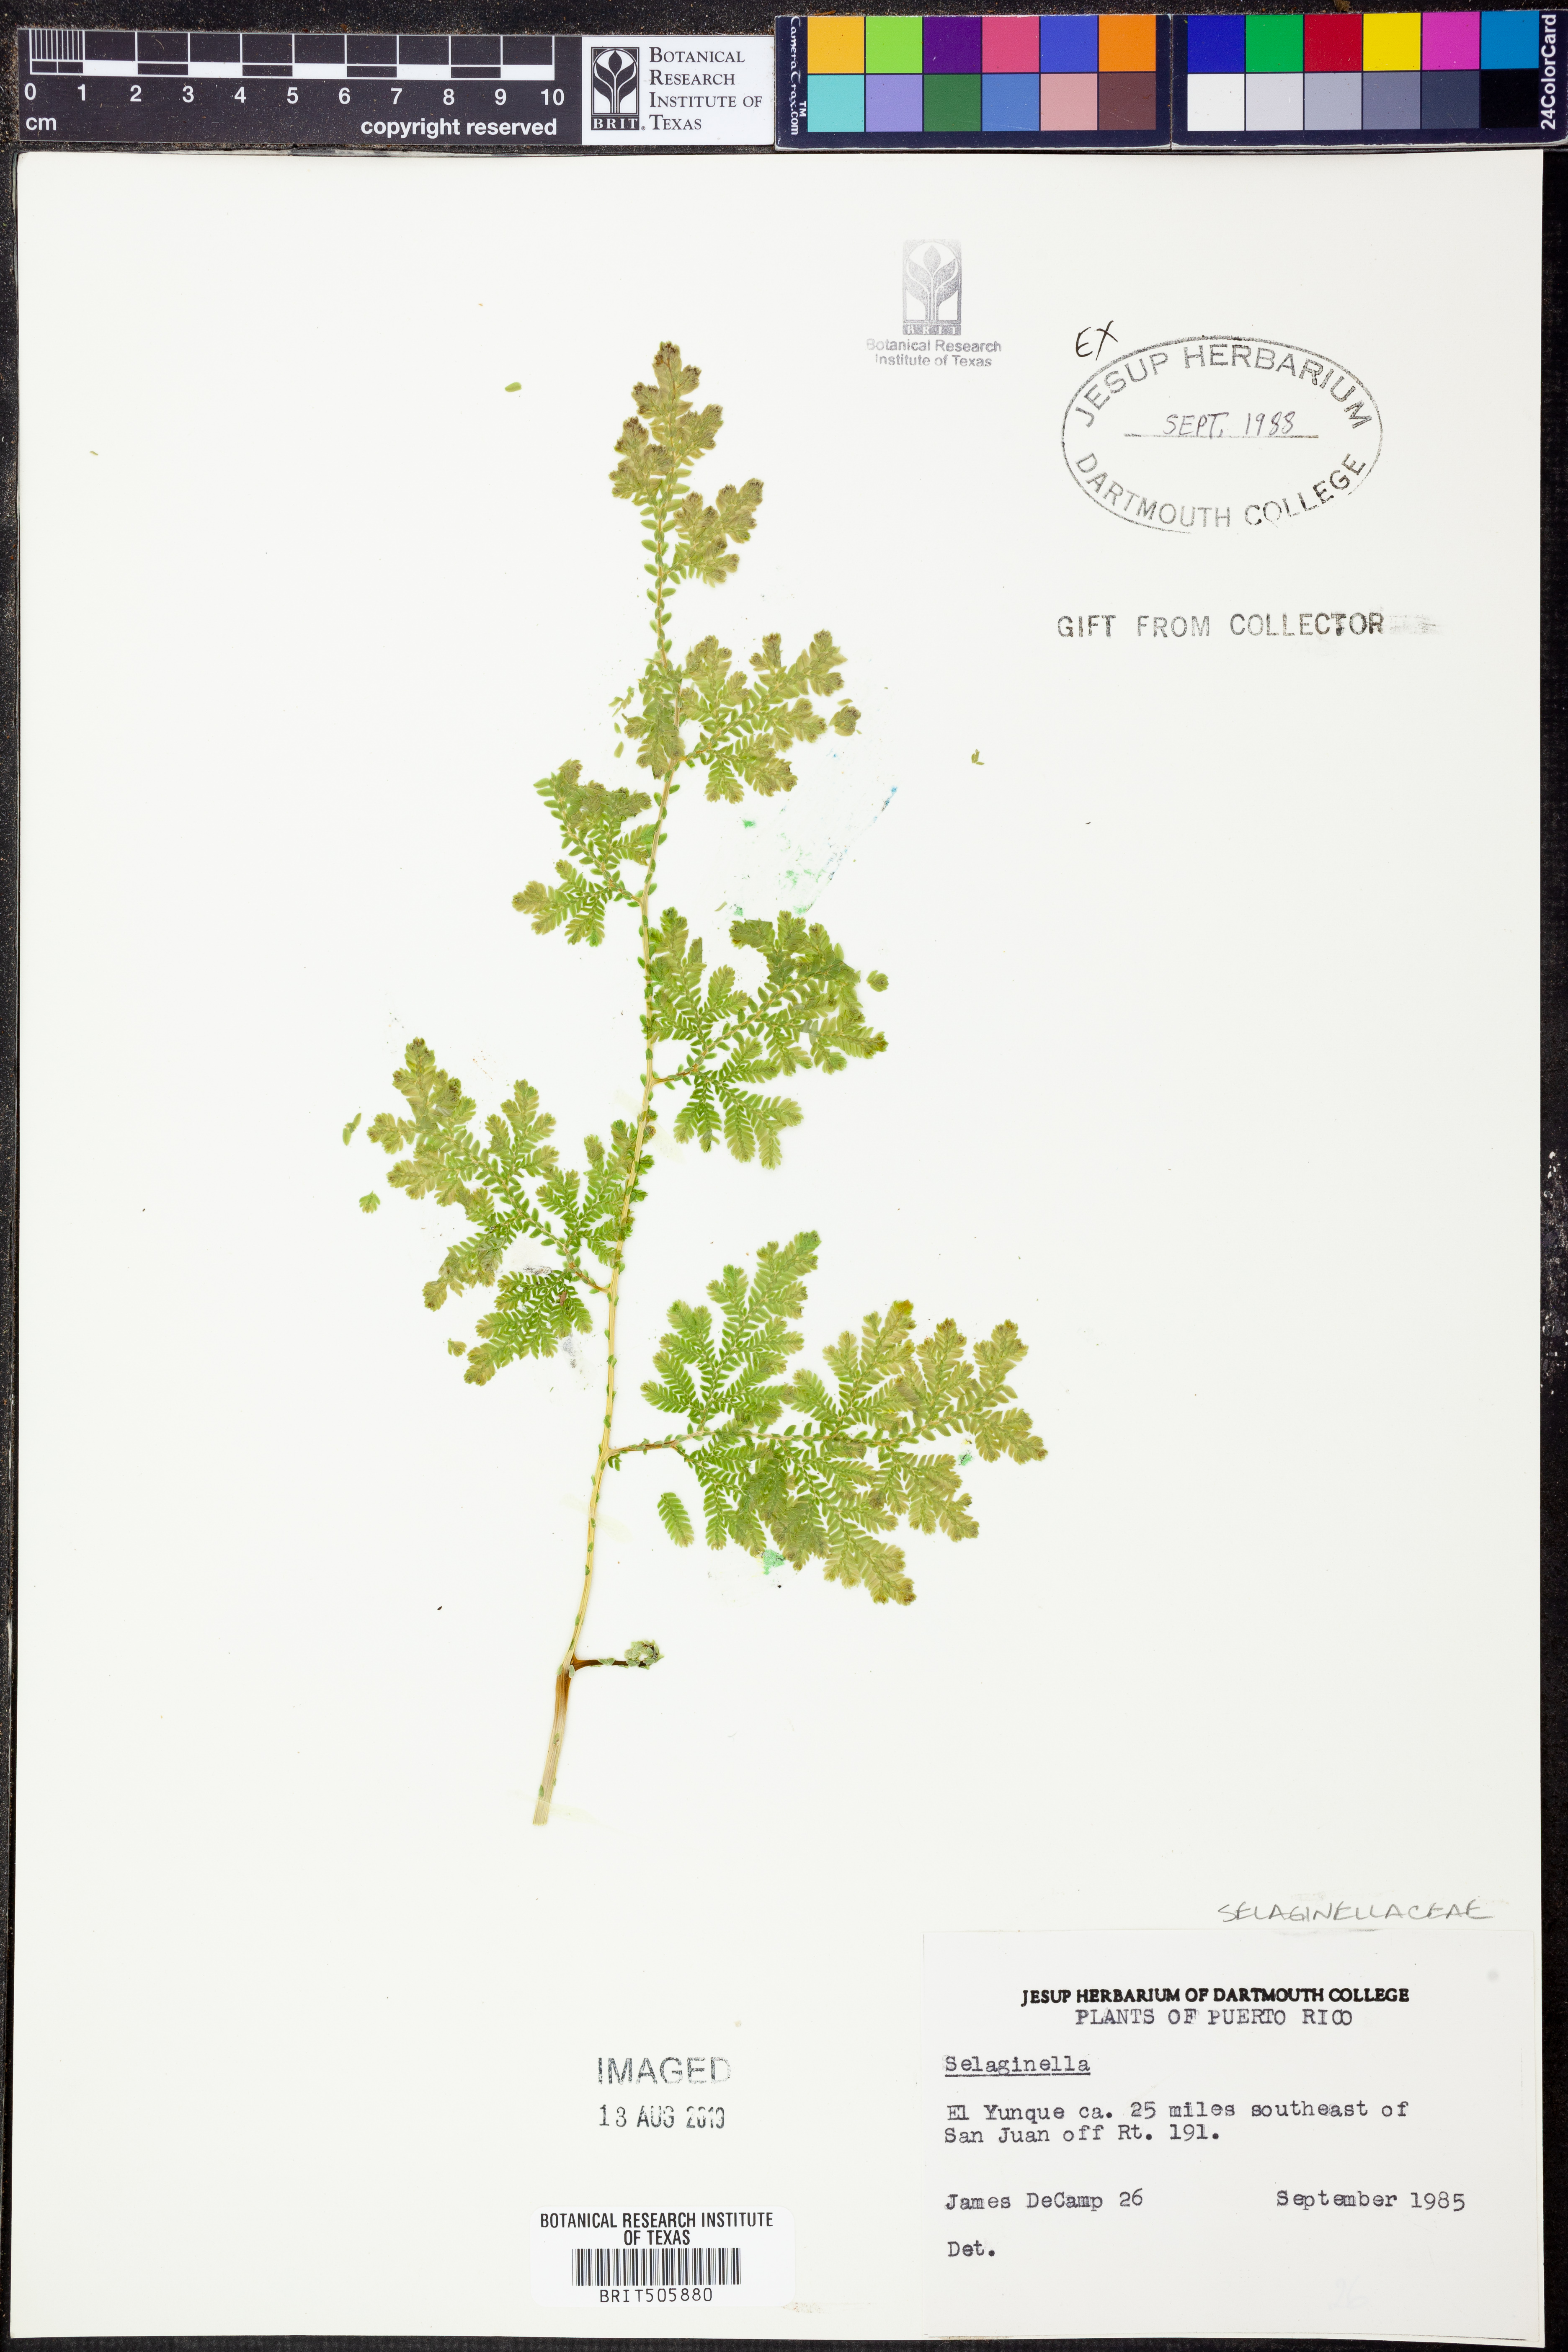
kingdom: Plantae
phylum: Tracheophyta
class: Lycopodiopsida
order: Selaginellales
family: Selaginellaceae
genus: Selaginella
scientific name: Selaginella
